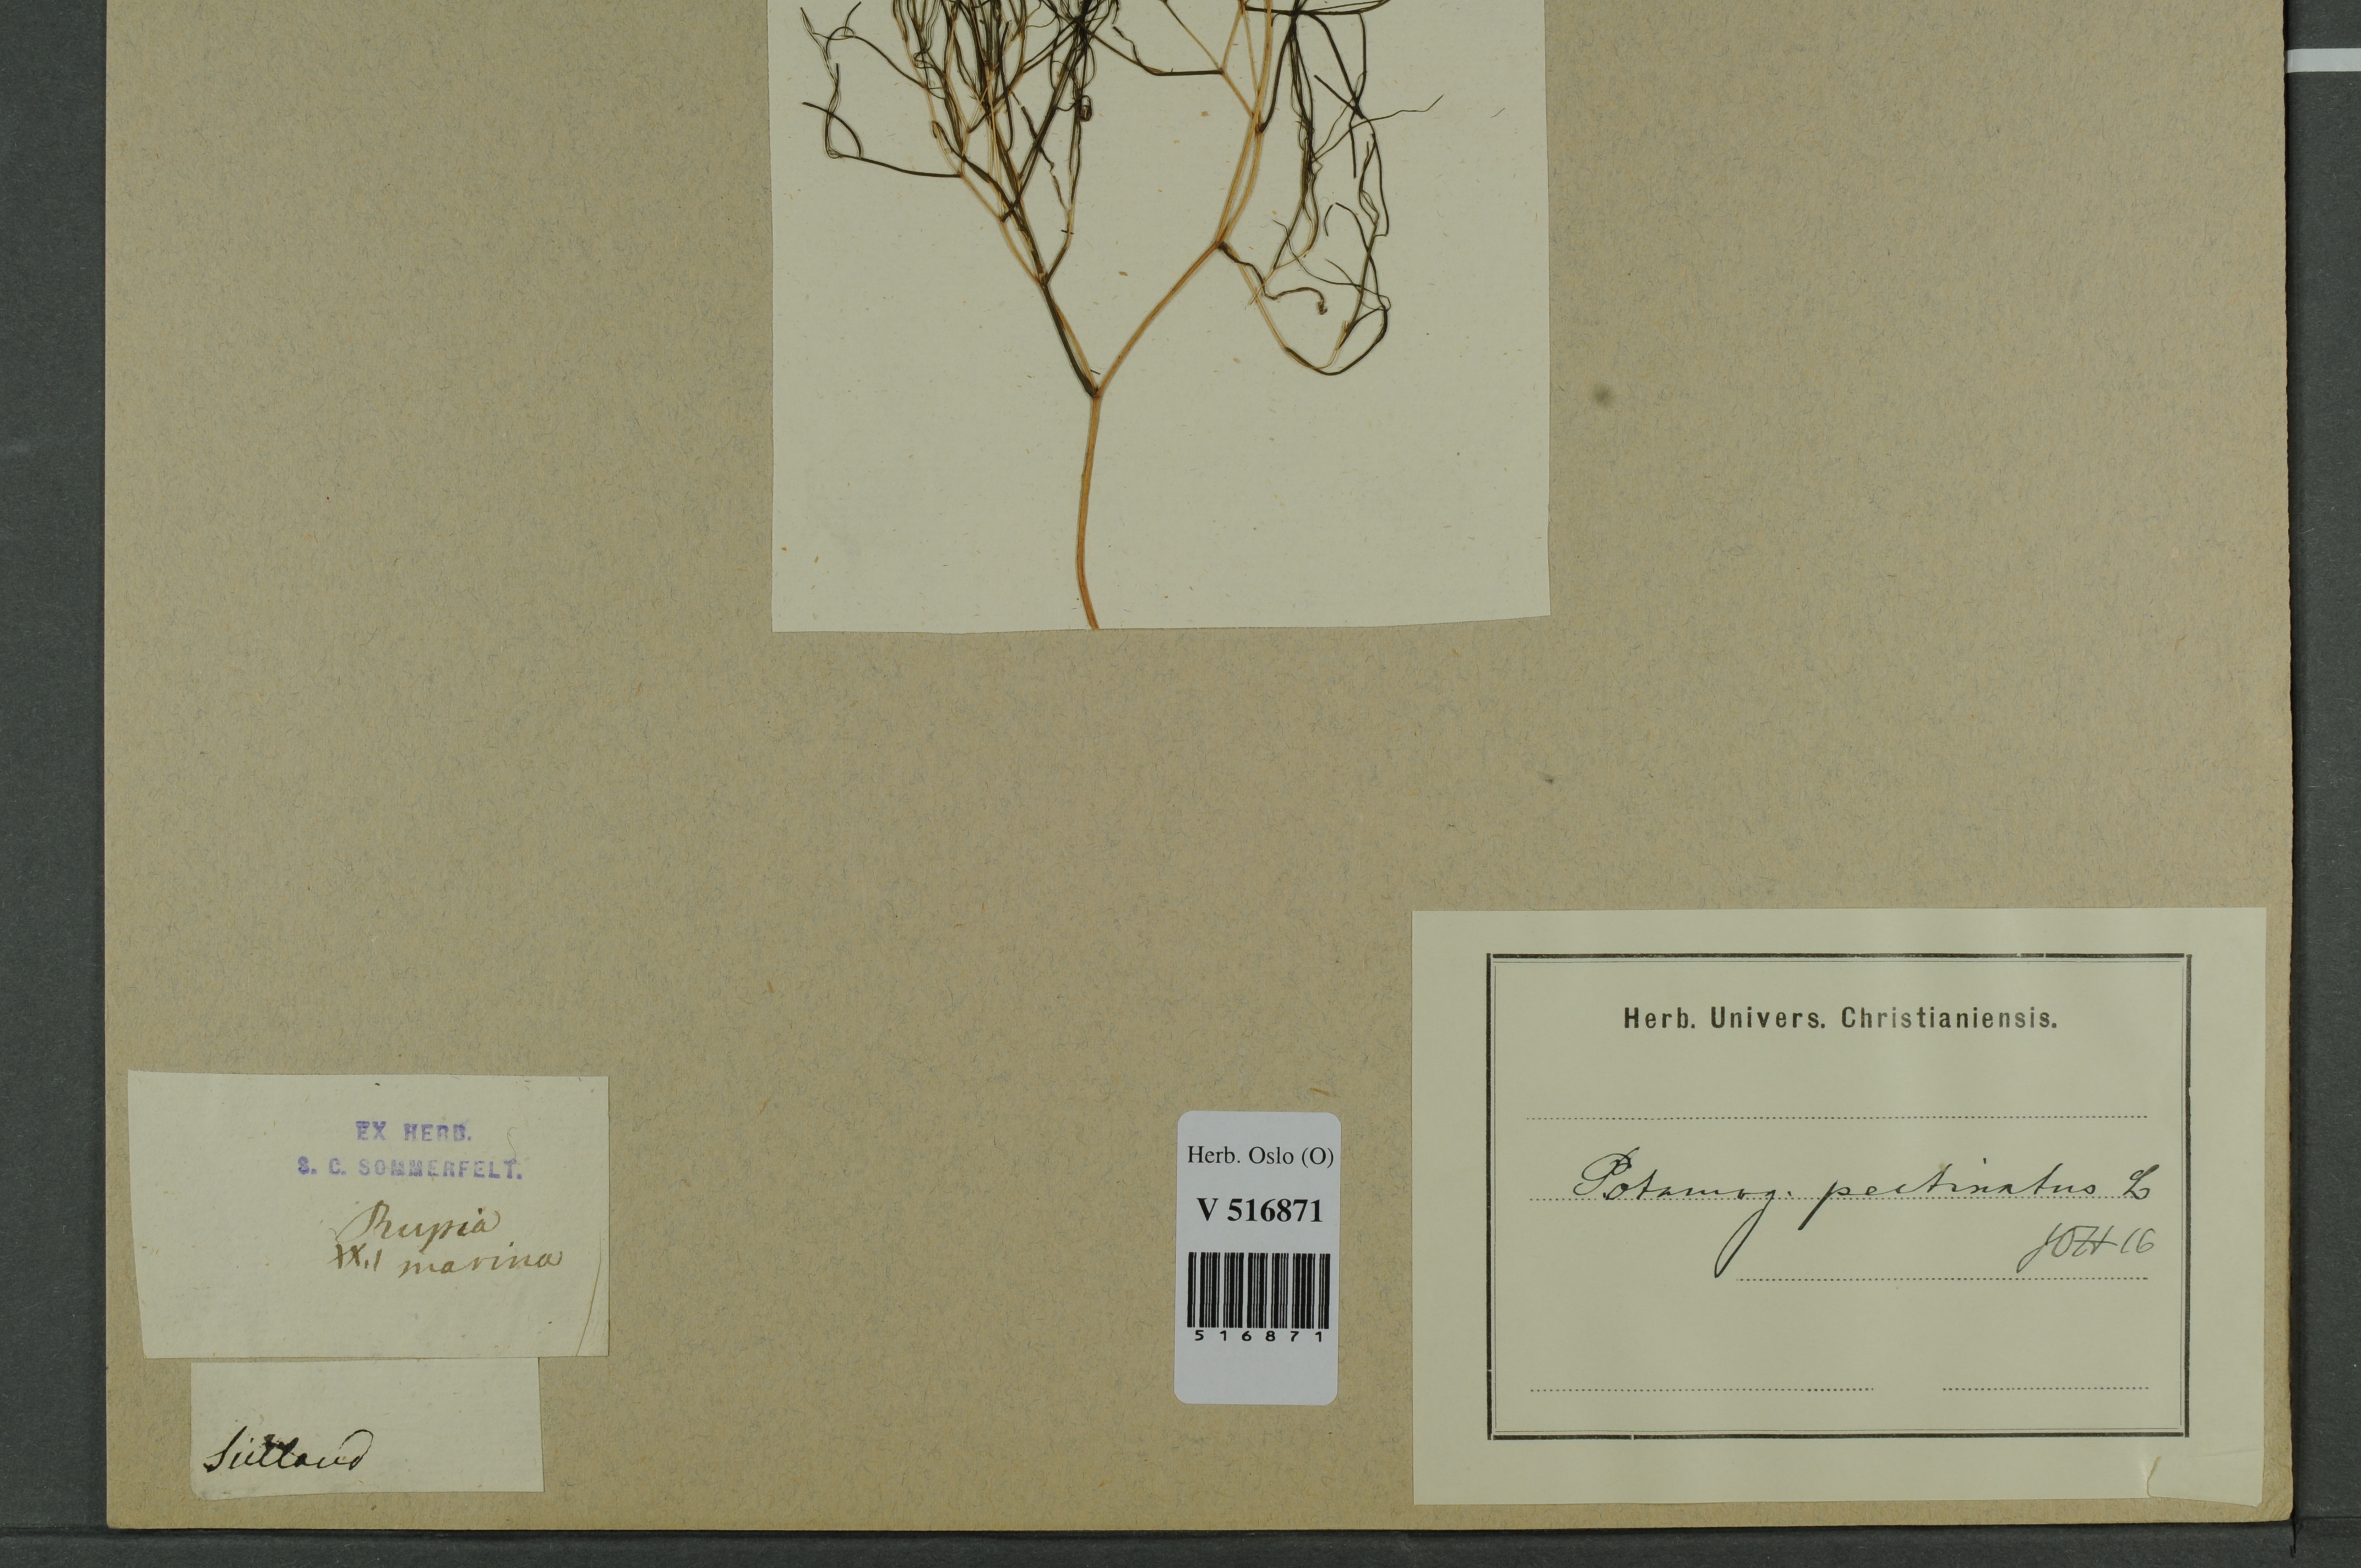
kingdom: Plantae
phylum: Tracheophyta
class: Liliopsida
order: Alismatales
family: Potamogetonaceae
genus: Stuckenia
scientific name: Stuckenia pectinata
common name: Sago pondweed
